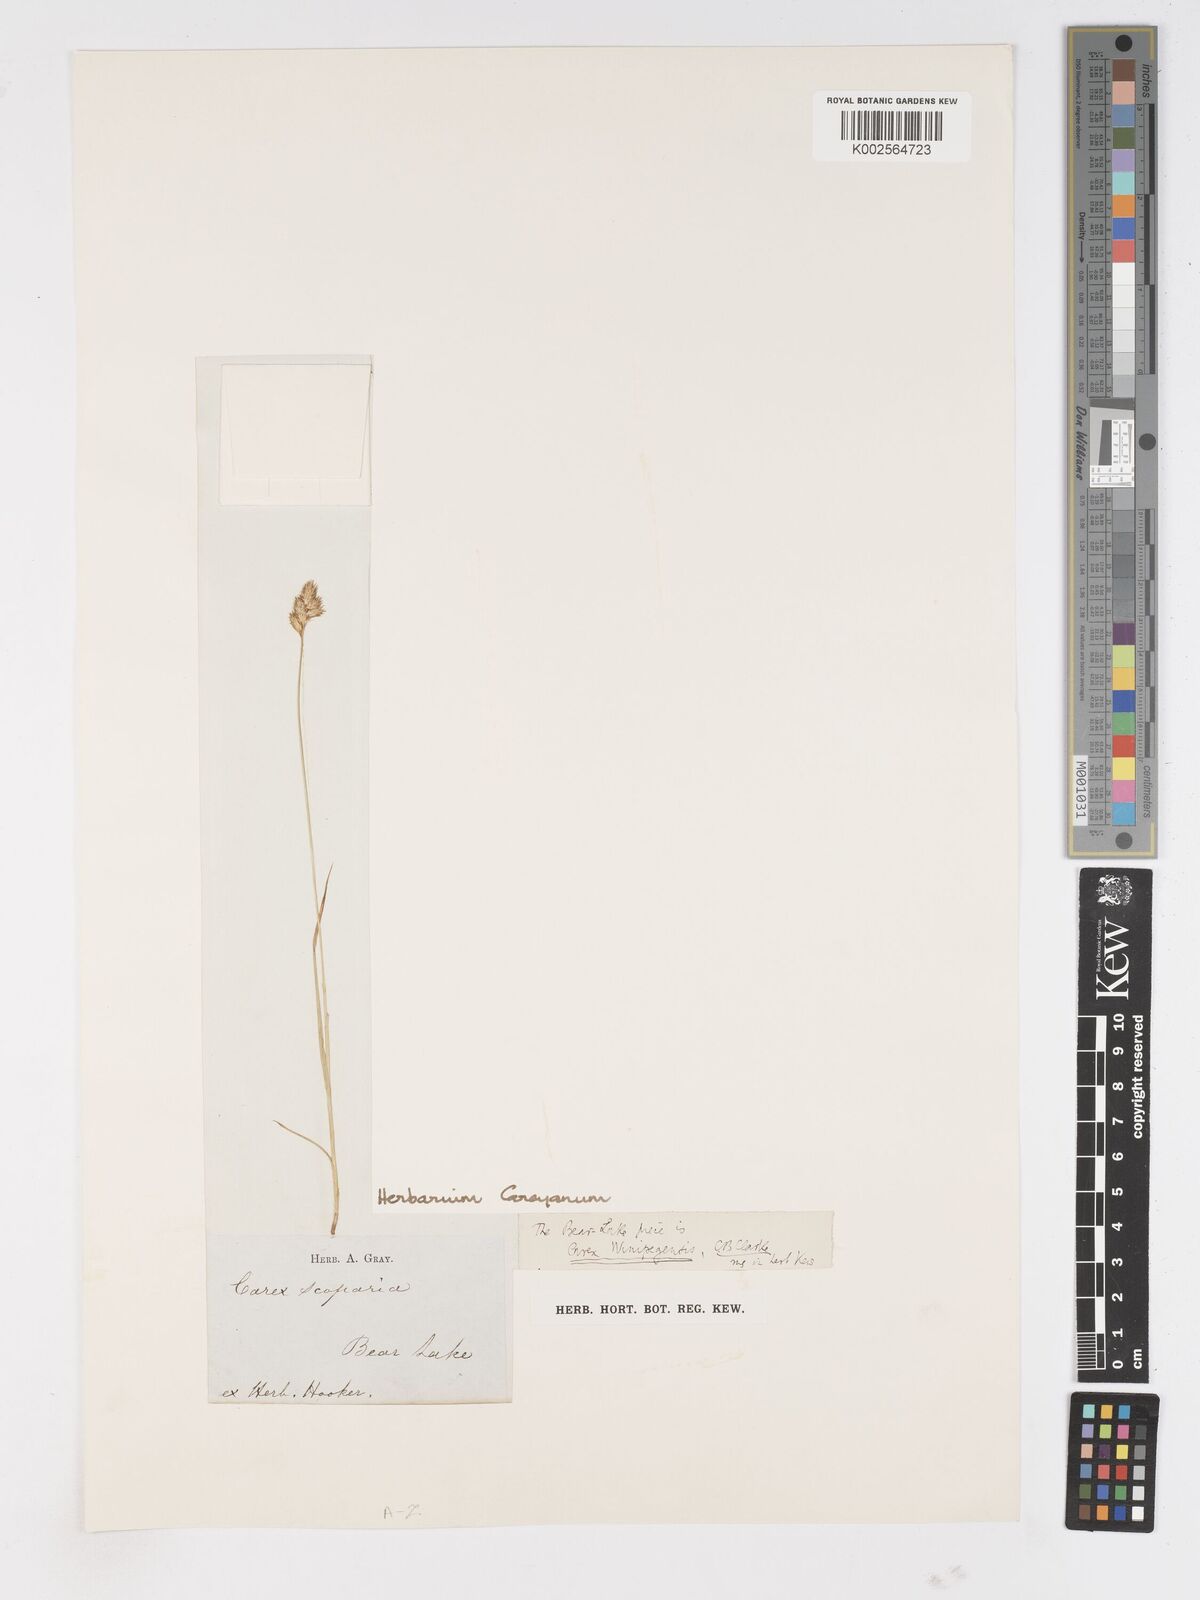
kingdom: Plantae
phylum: Tracheophyta
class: Liliopsida
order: Poales
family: Cyperaceae
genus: Carex
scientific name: Carex
